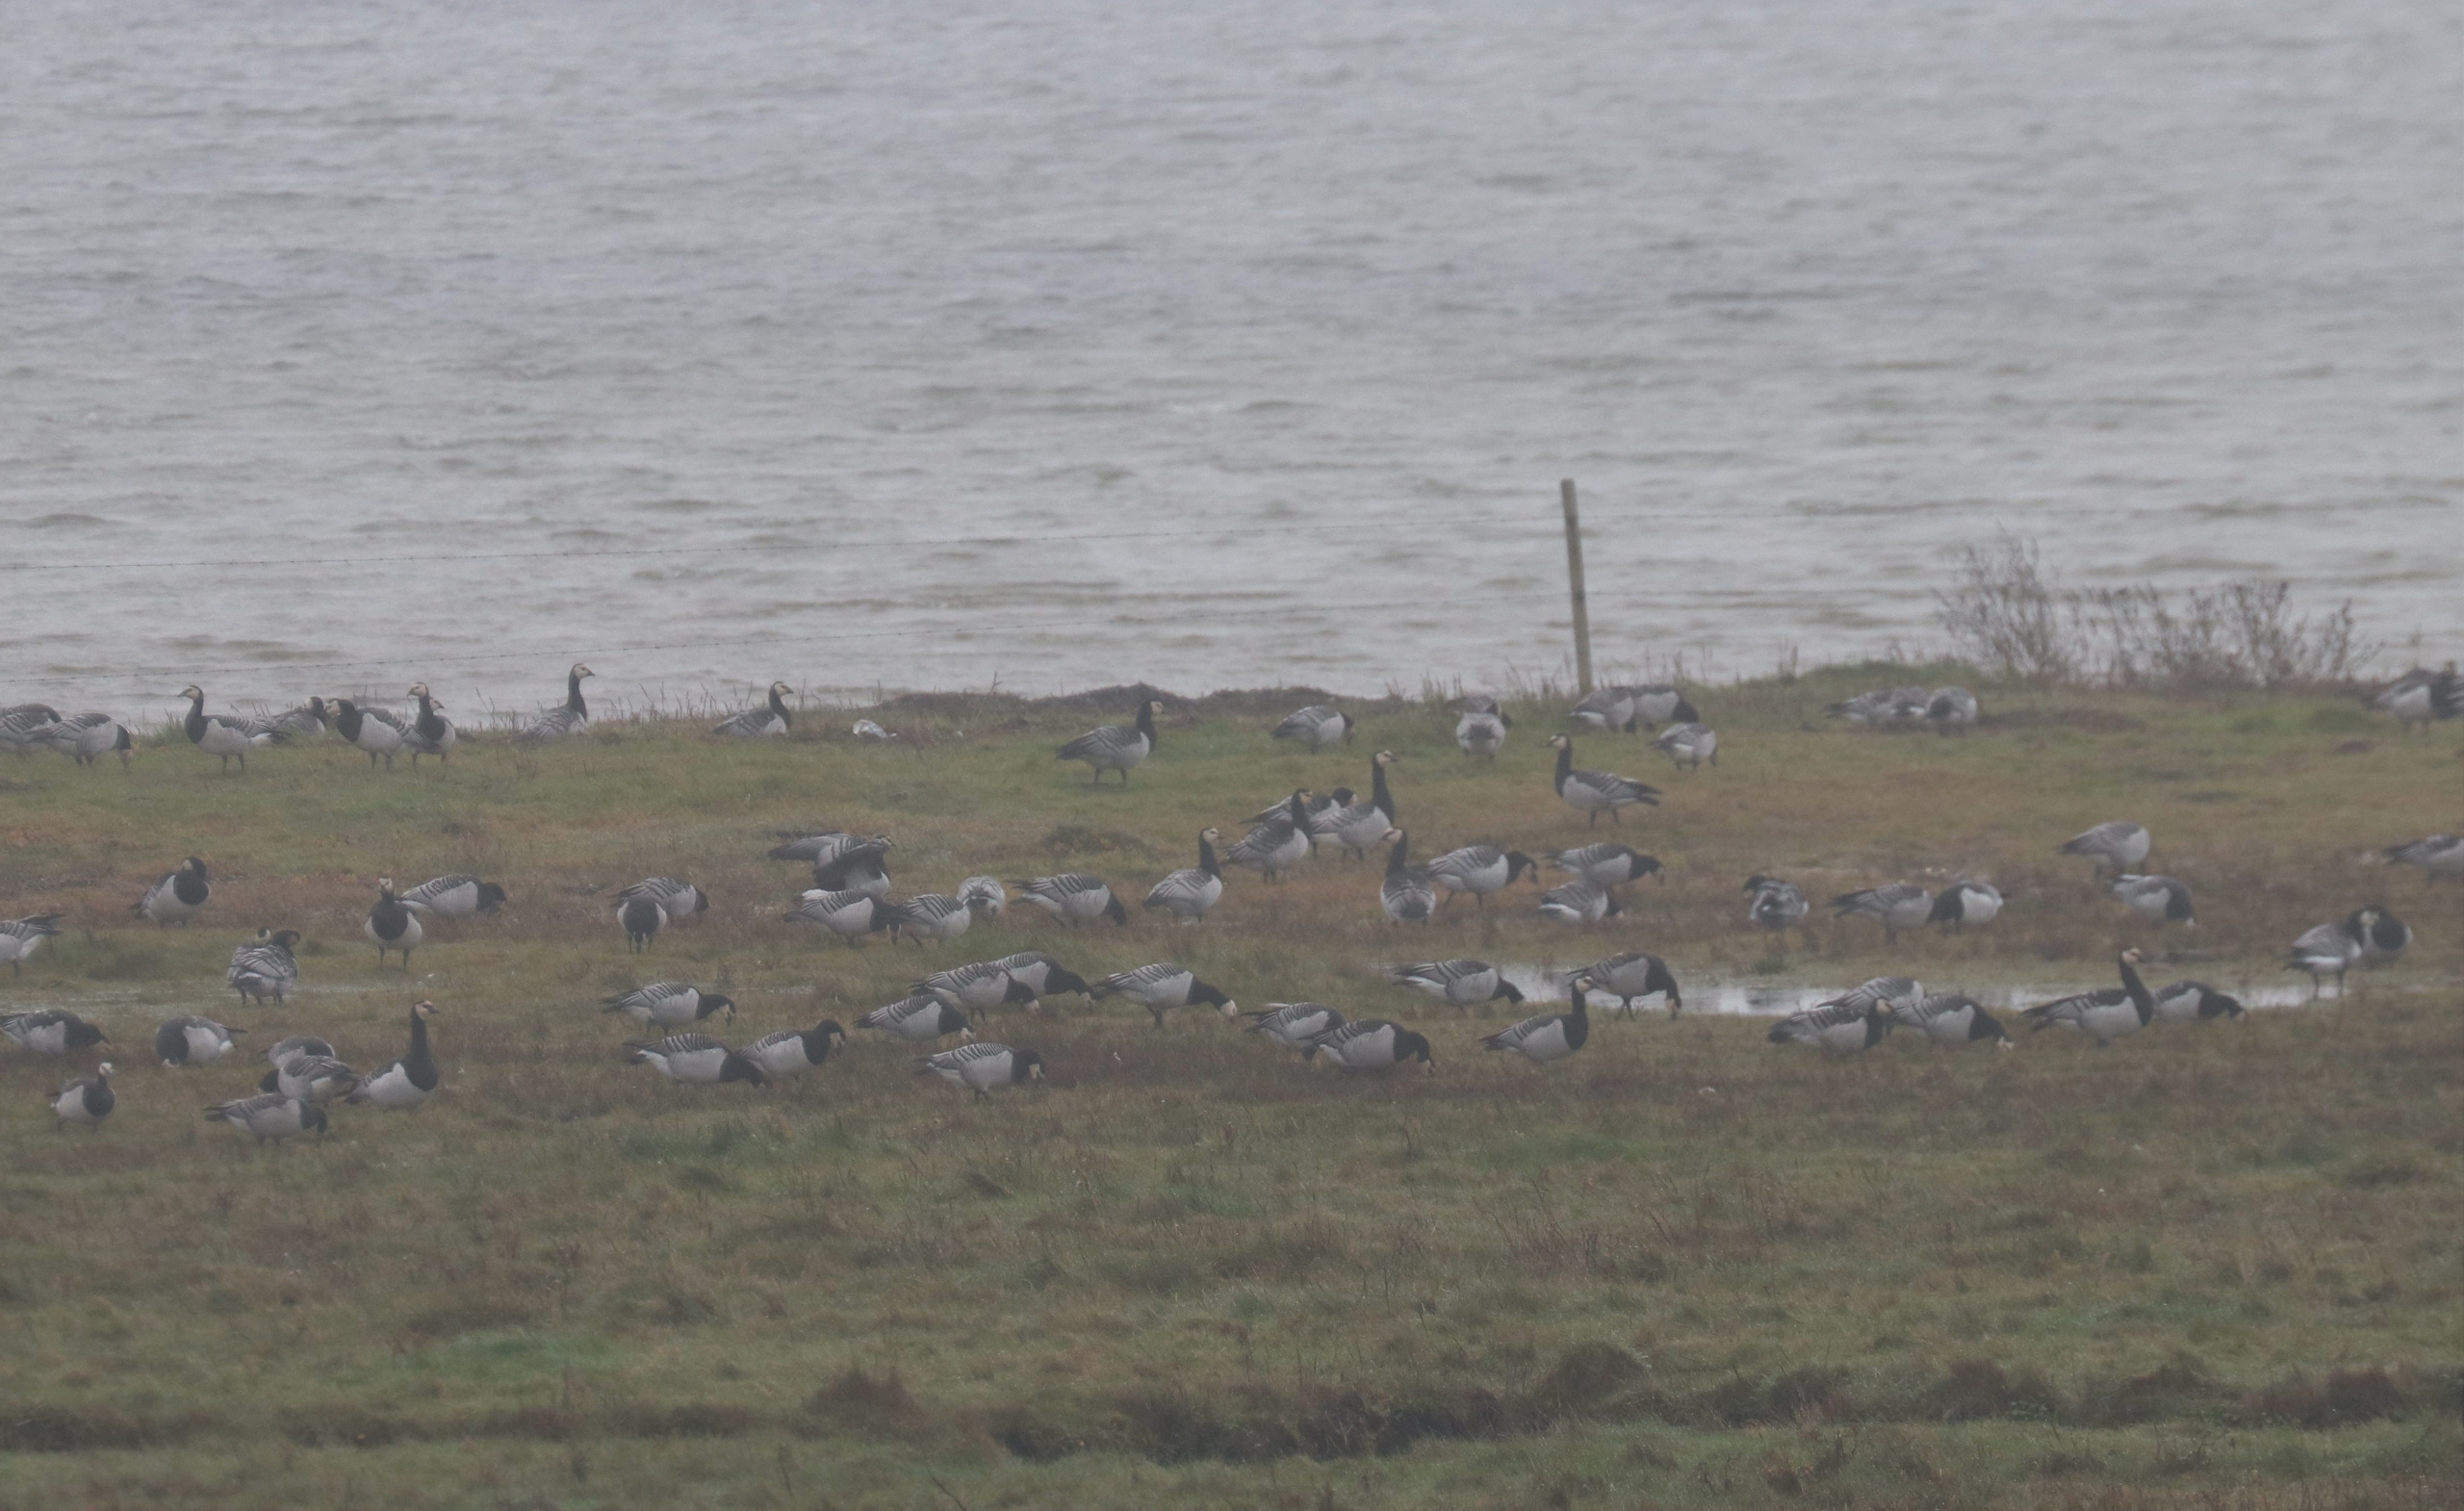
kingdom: Animalia
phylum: Chordata
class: Aves
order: Anseriformes
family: Anatidae
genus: Branta
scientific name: Branta leucopsis
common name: Bramgås
